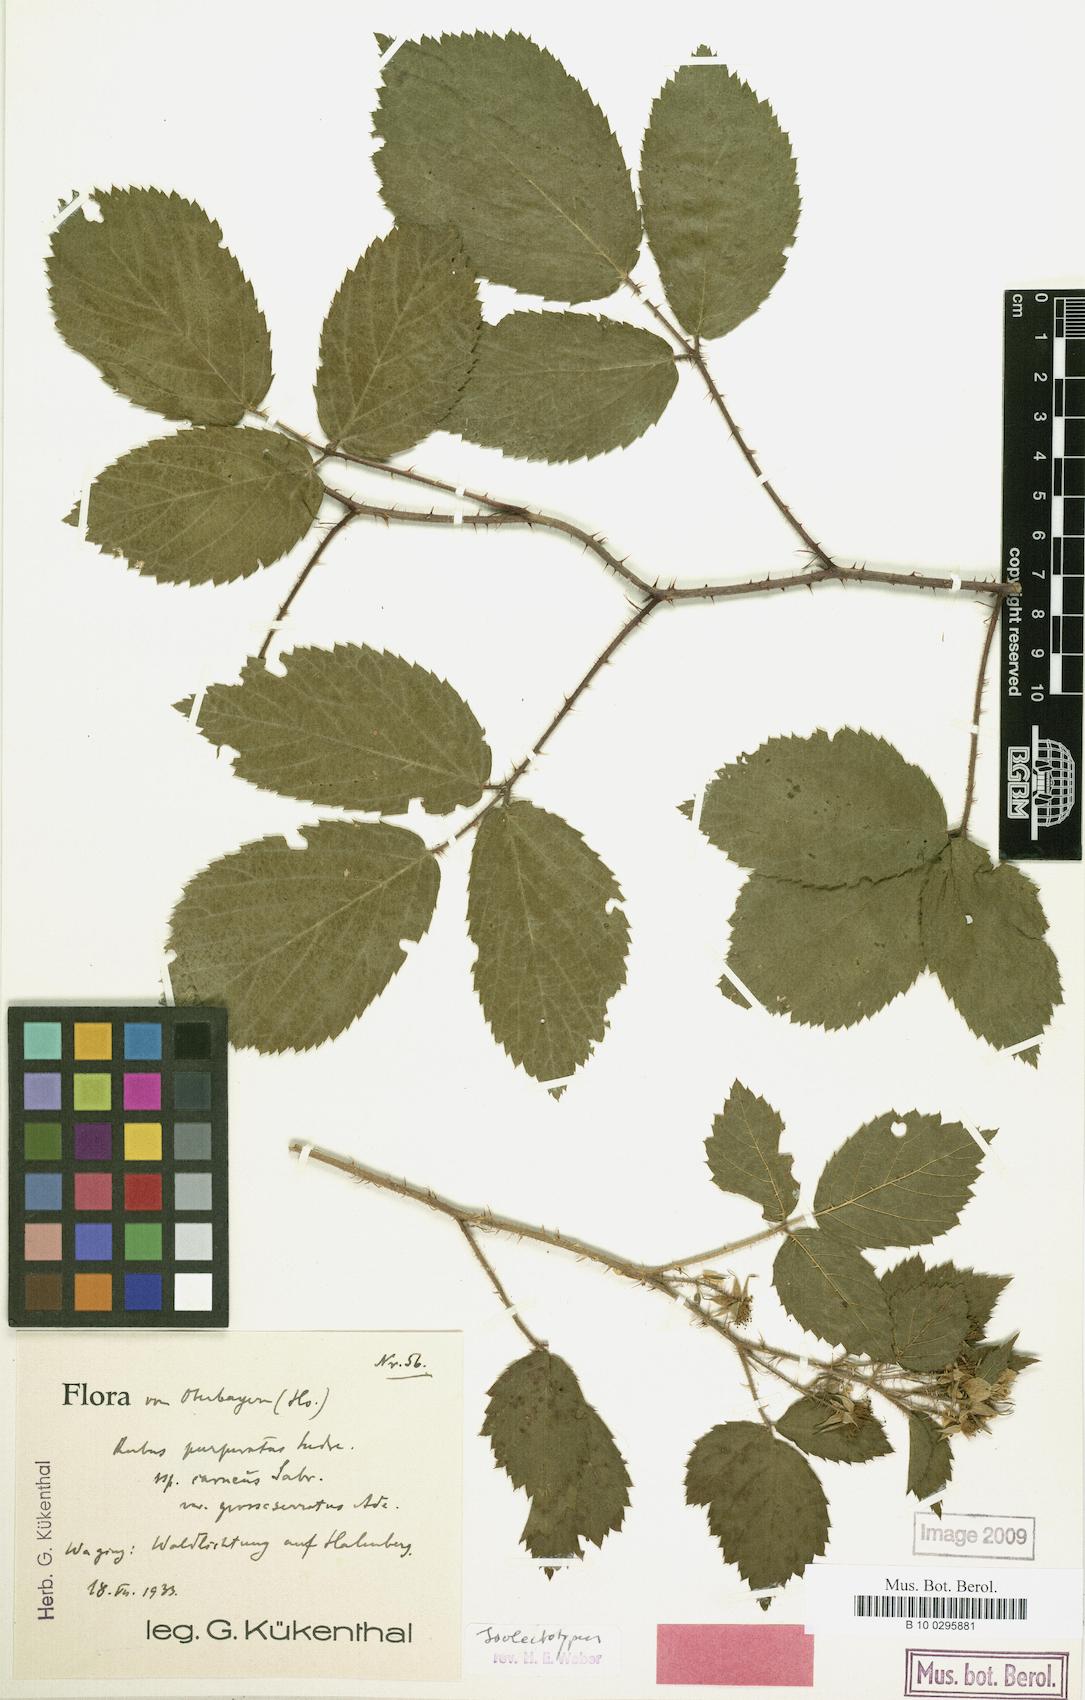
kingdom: Plantae
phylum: Tracheophyta
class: Magnoliopsida
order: Rosales
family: Rosaceae
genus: Rubus
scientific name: Rubus praedatus
